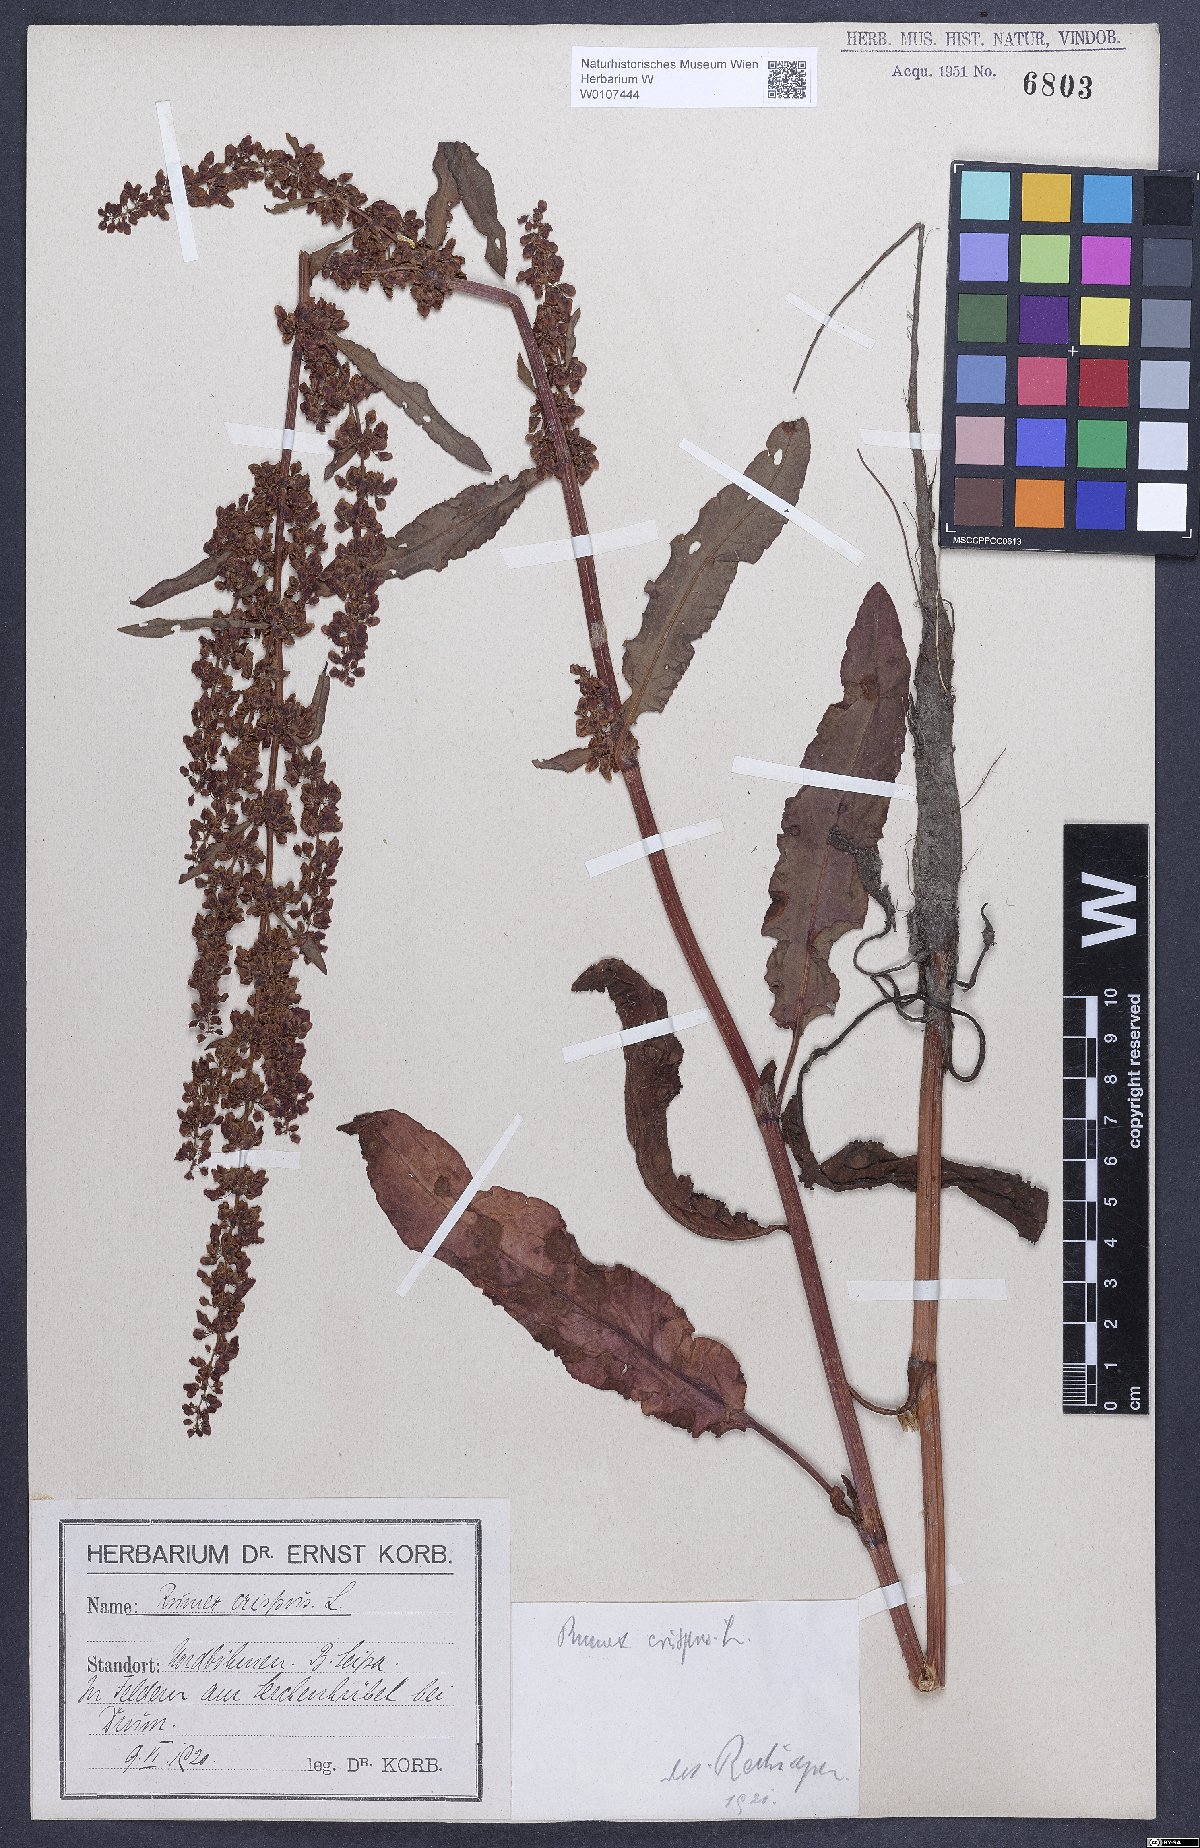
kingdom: Plantae
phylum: Tracheophyta
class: Magnoliopsida
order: Caryophyllales
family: Polygonaceae
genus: Rumex
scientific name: Rumex crispus
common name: Curled dock
